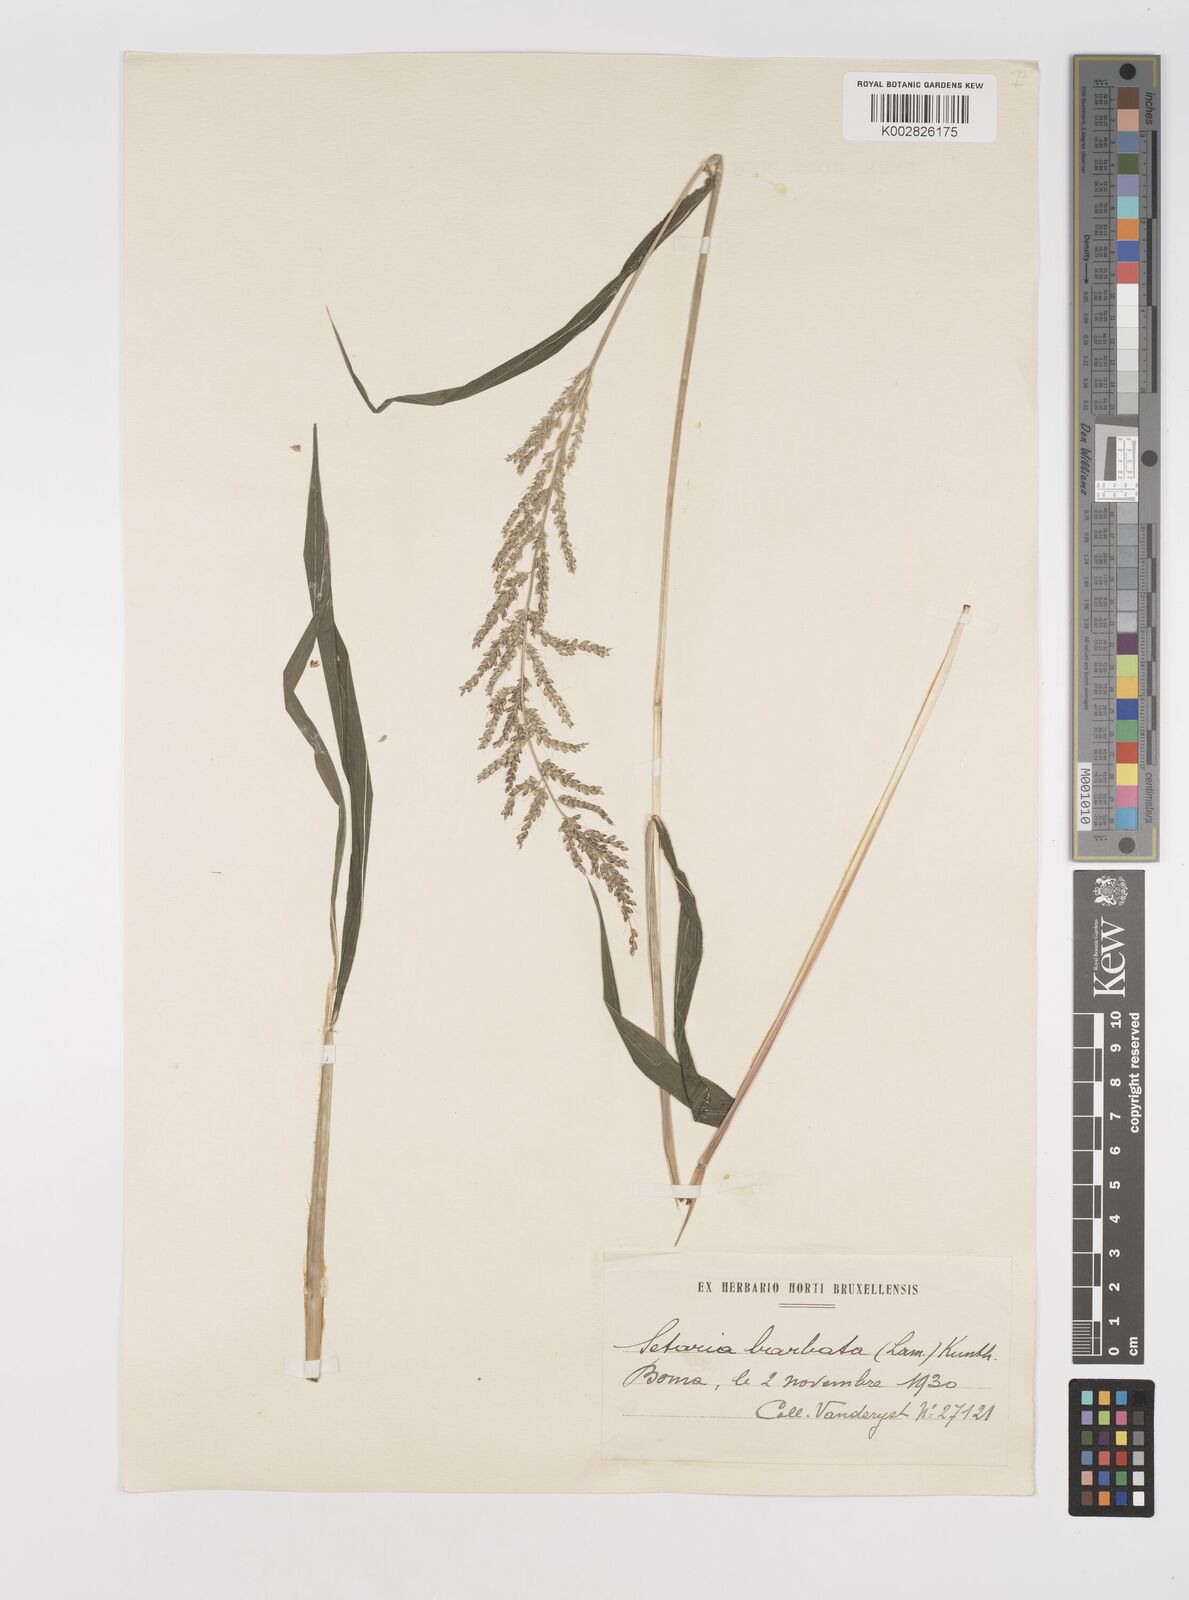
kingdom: Plantae
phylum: Tracheophyta
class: Liliopsida
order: Poales
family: Poaceae
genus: Setaria
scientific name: Setaria barbata
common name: East indian bristlegrass
